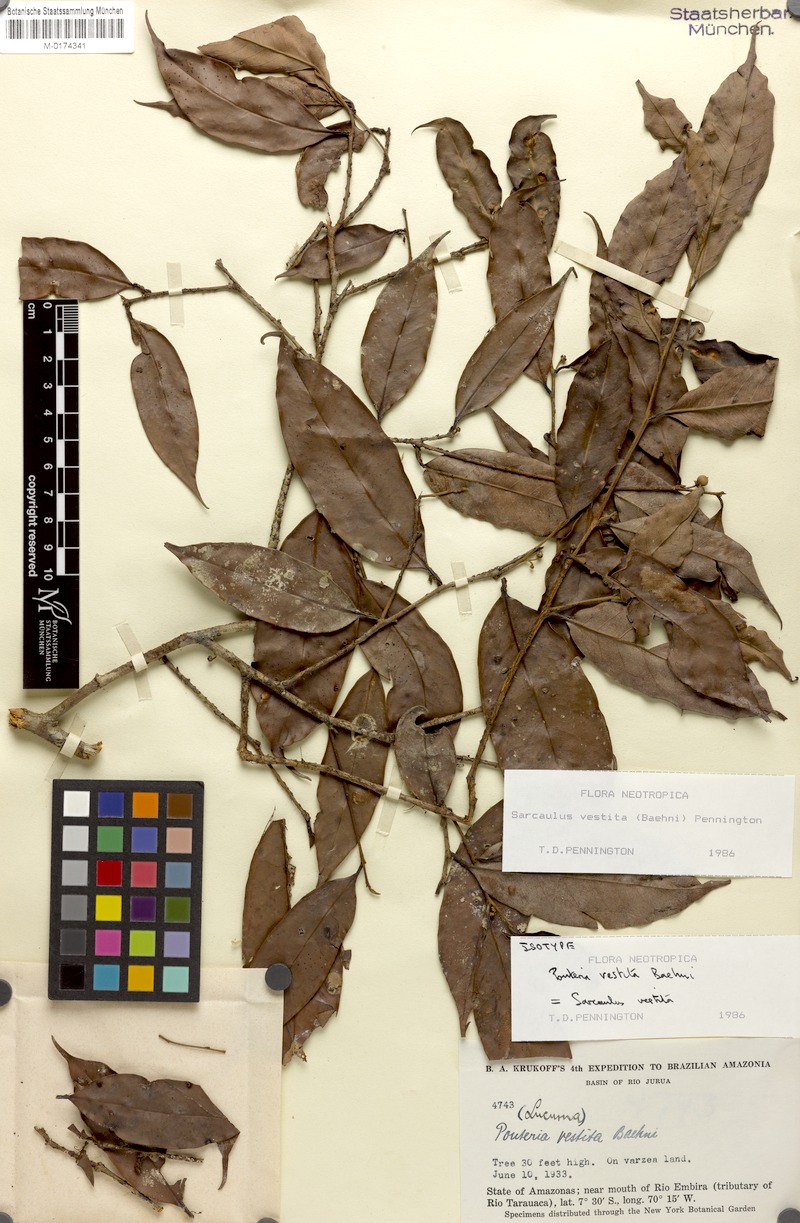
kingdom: Plantae
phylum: Tracheophyta
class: Magnoliopsida
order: Ericales
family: Sapotaceae
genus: Sarcaulus
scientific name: Sarcaulus vestitus
